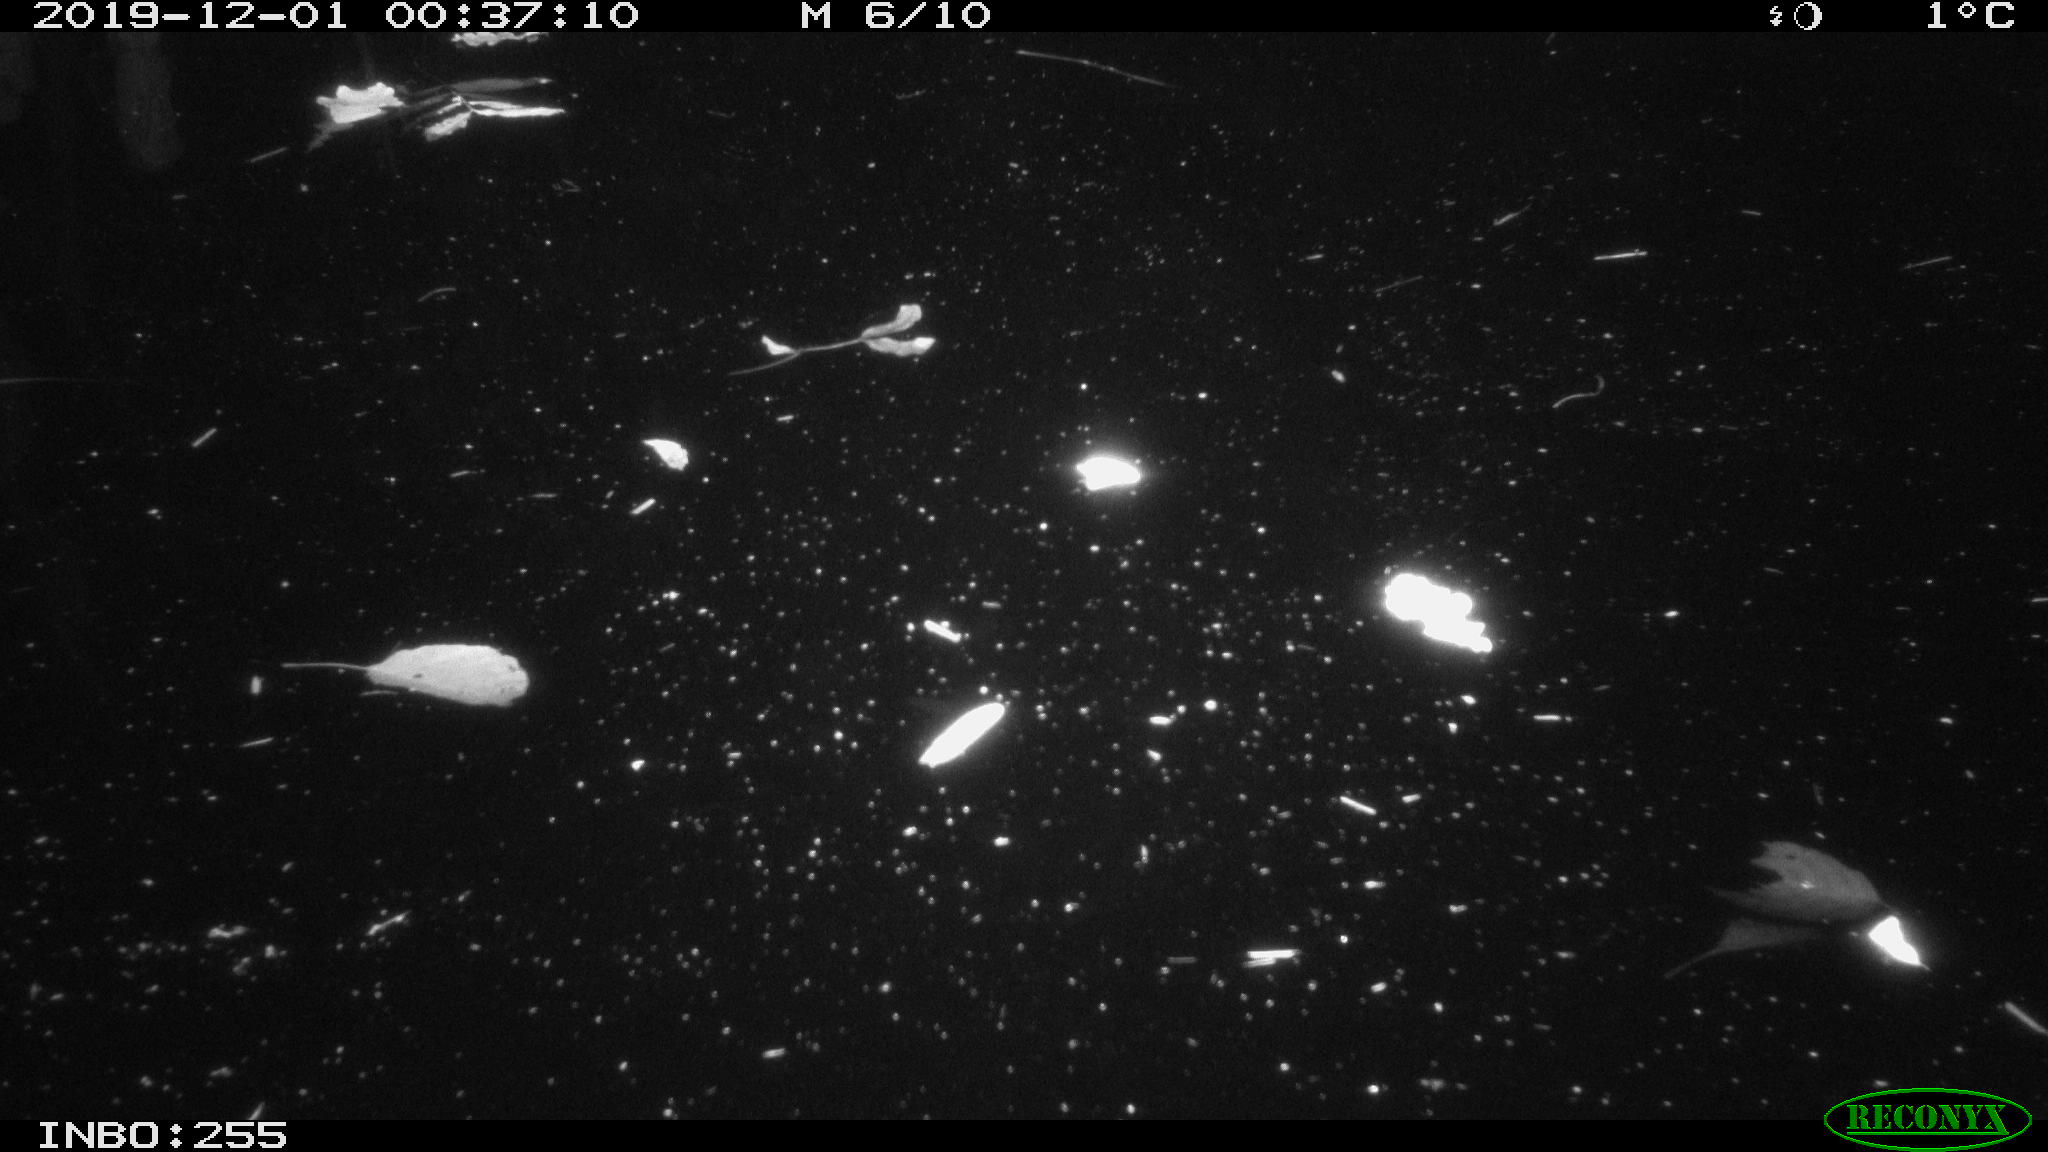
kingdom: Animalia
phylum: Chordata
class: Aves
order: Gruiformes
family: Rallidae
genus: Gallinula
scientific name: Gallinula chloropus
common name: Common moorhen
